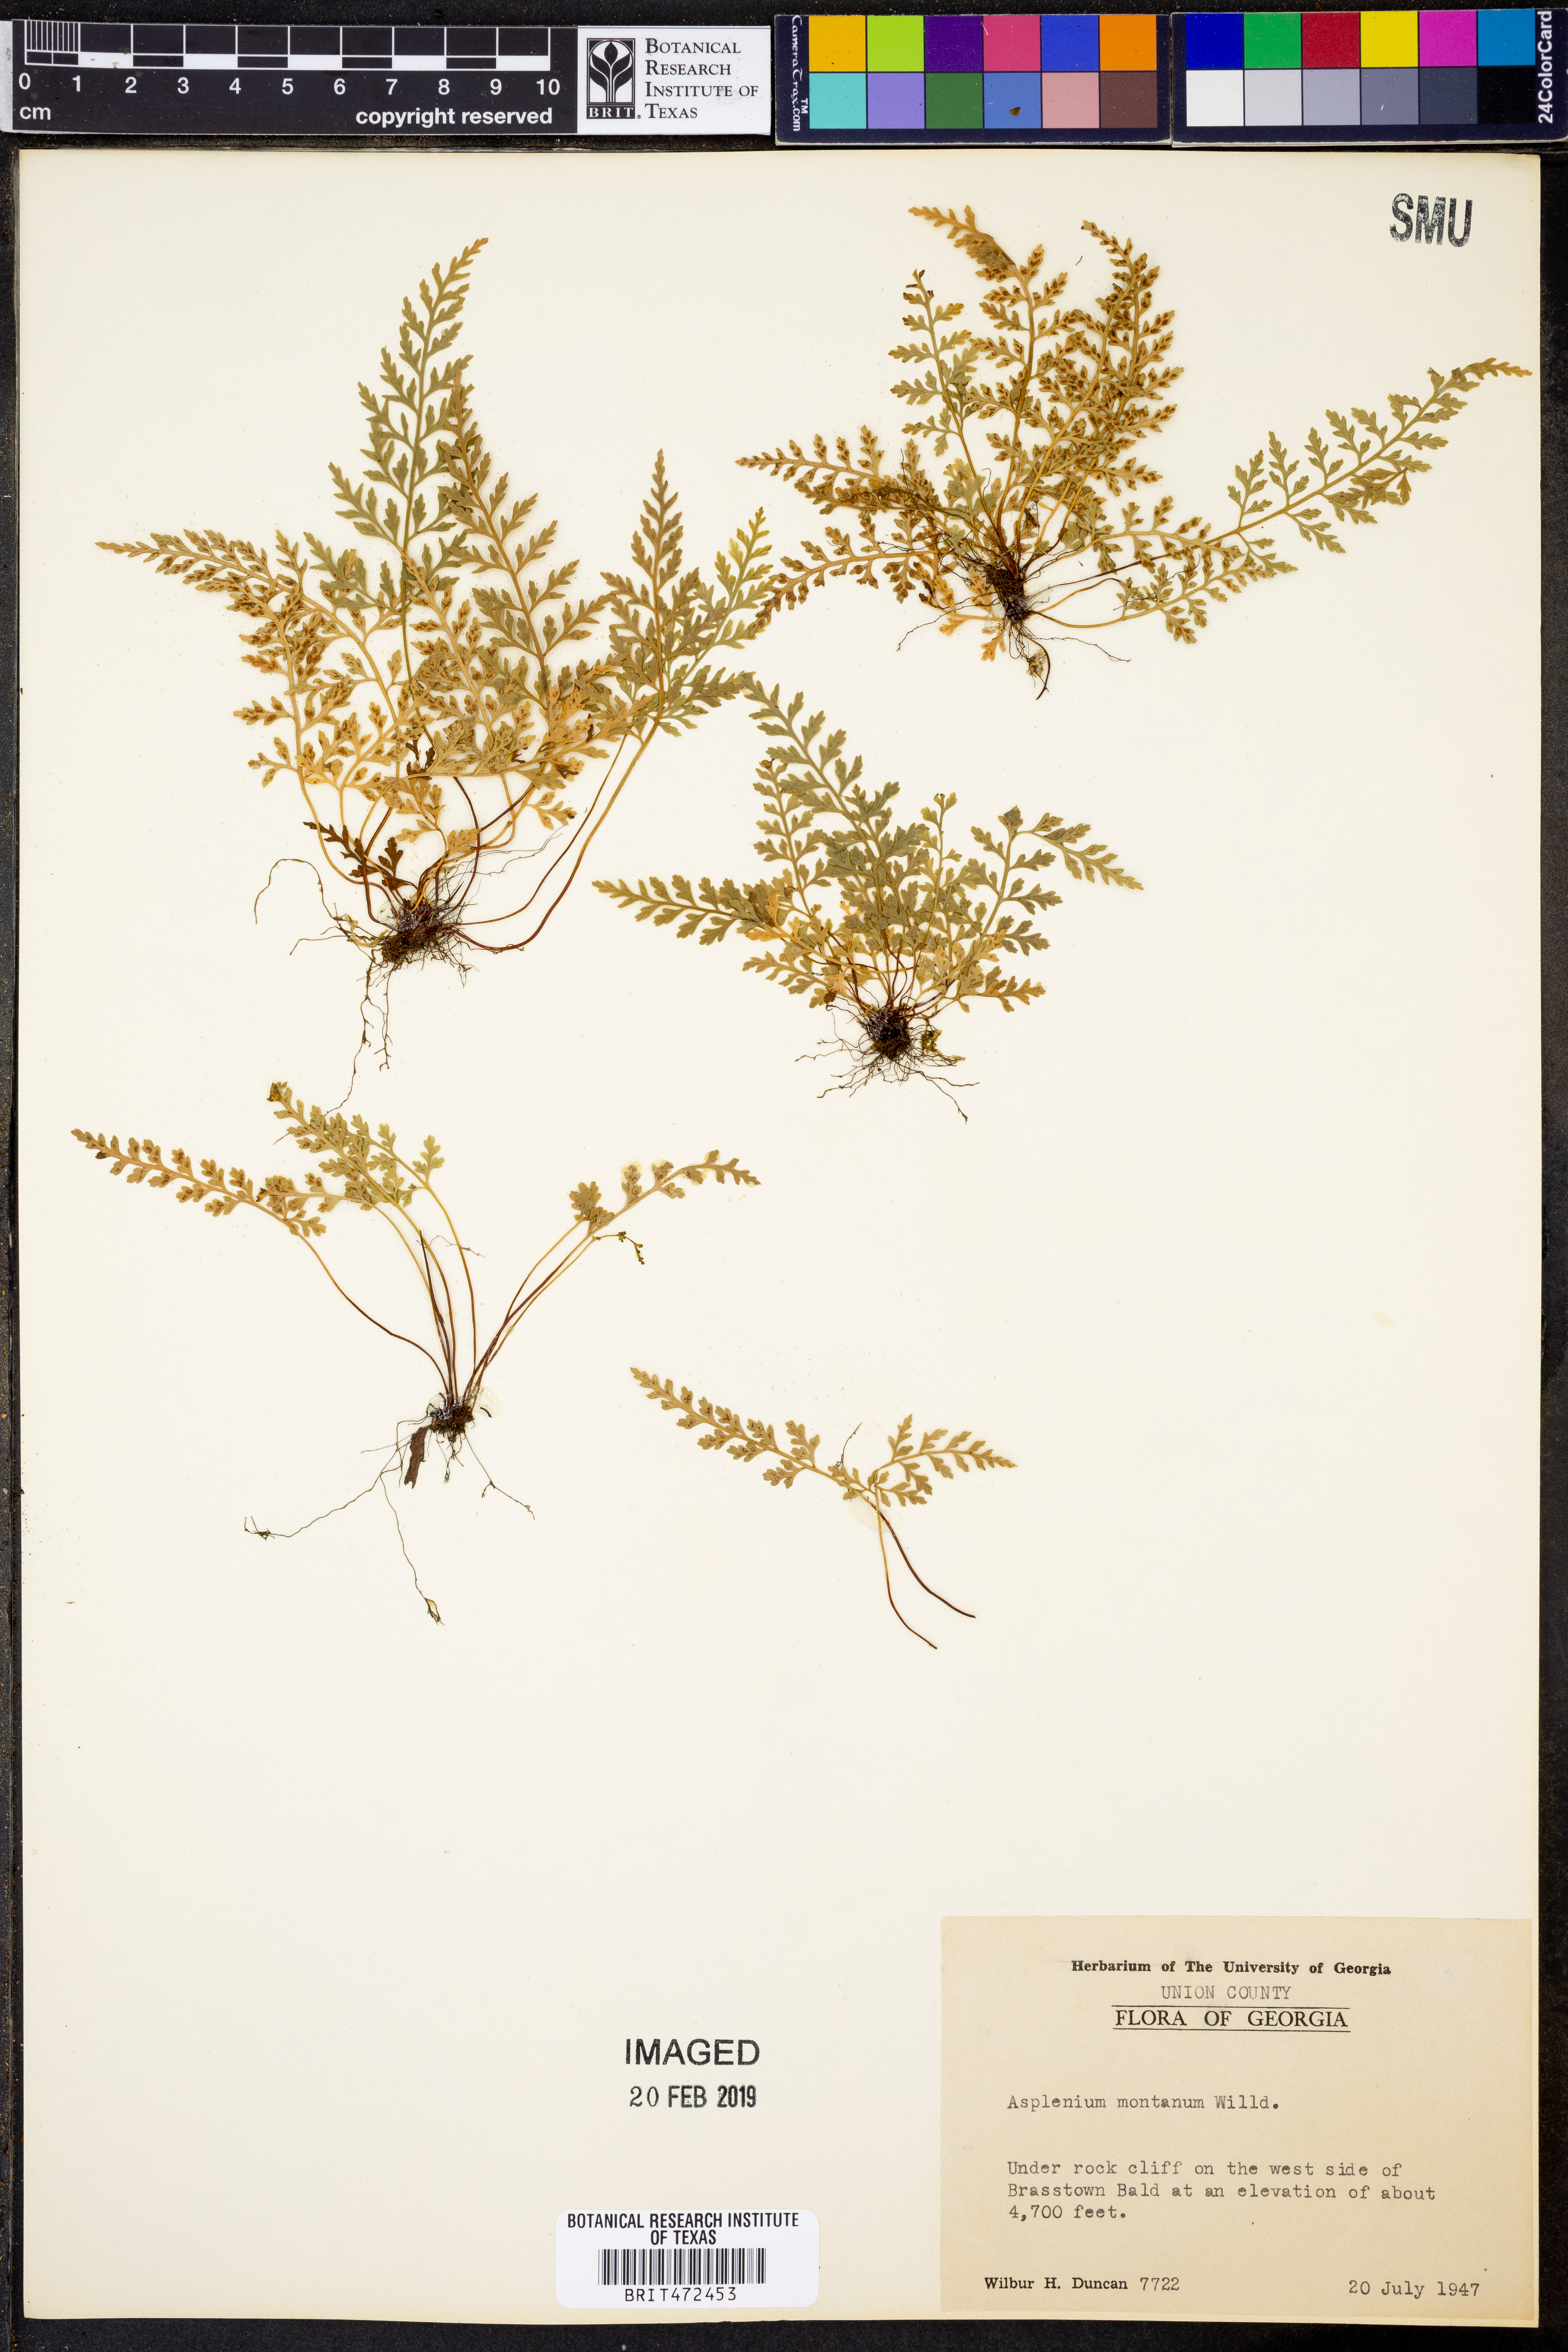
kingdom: Plantae
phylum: Tracheophyta
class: Polypodiopsida
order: Polypodiales
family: Aspleniaceae
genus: Asplenium
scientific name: Asplenium montanum
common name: Mountain spleenwort
